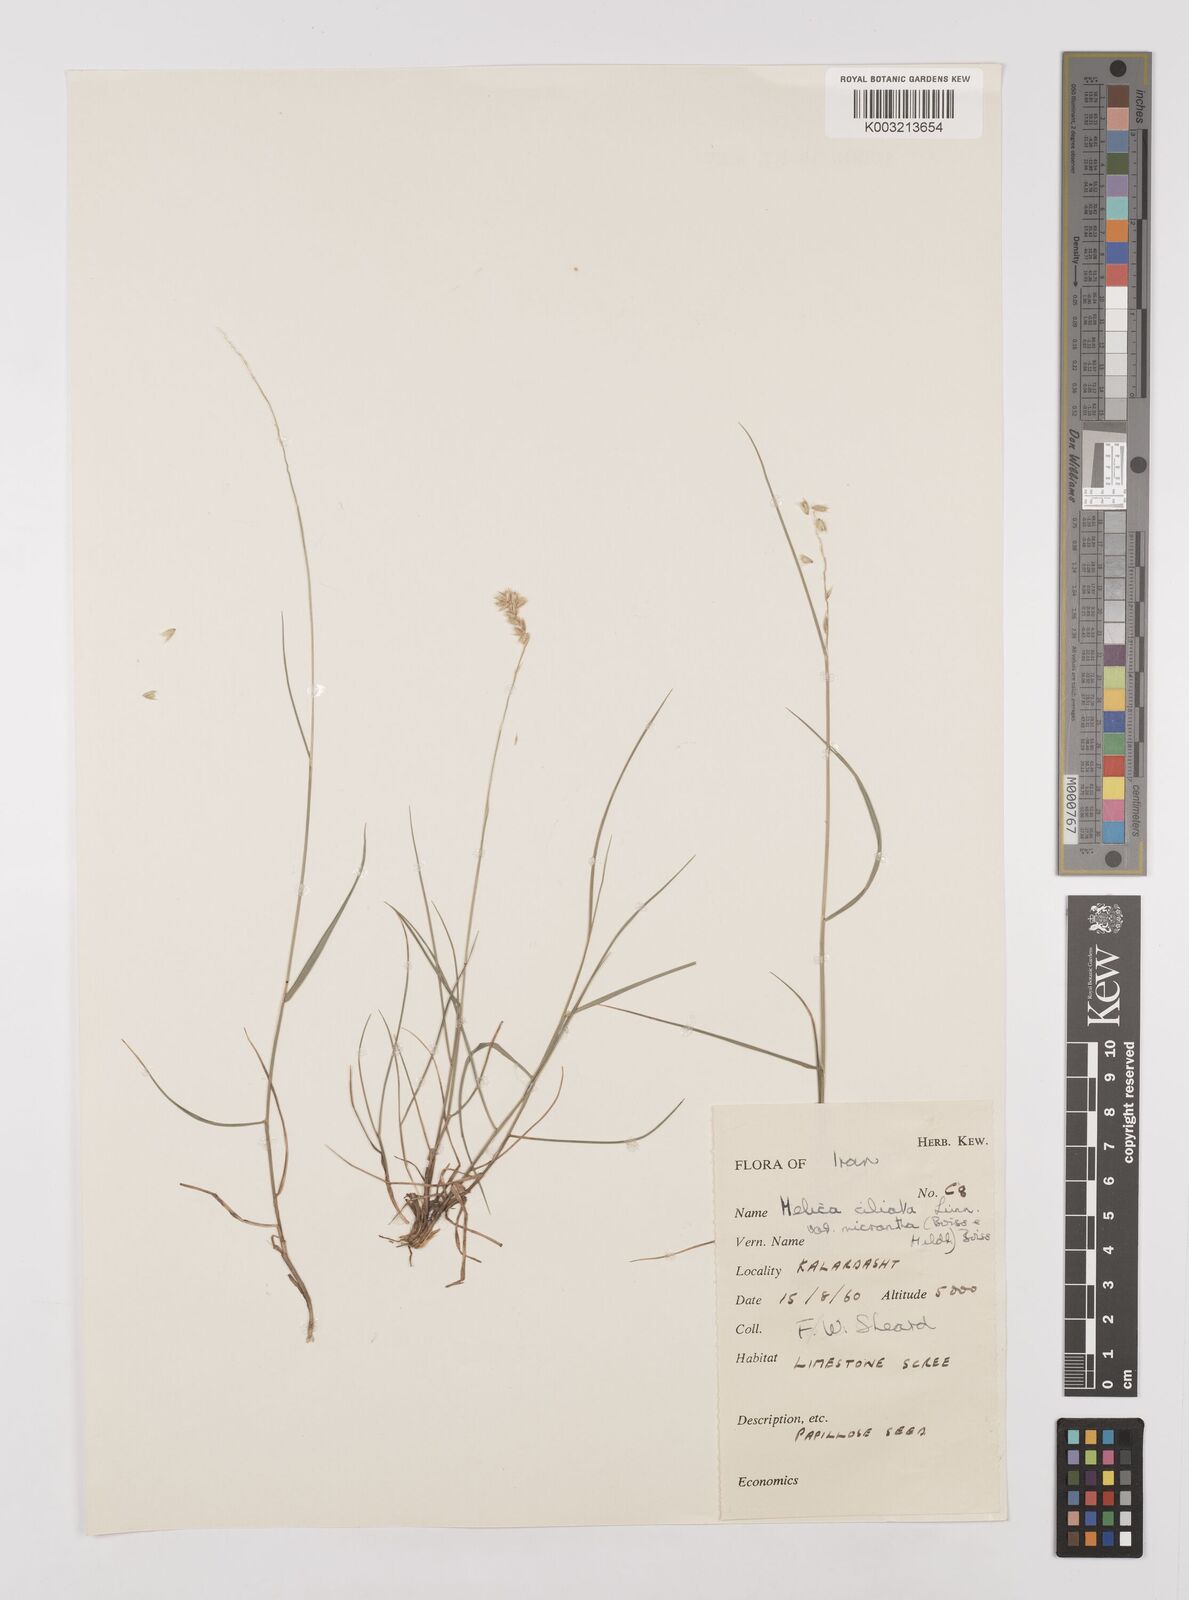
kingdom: Plantae
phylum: Tracheophyta
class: Liliopsida
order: Poales
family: Poaceae
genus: Melica
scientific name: Melica ciliata
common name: Hairy melicgrass
